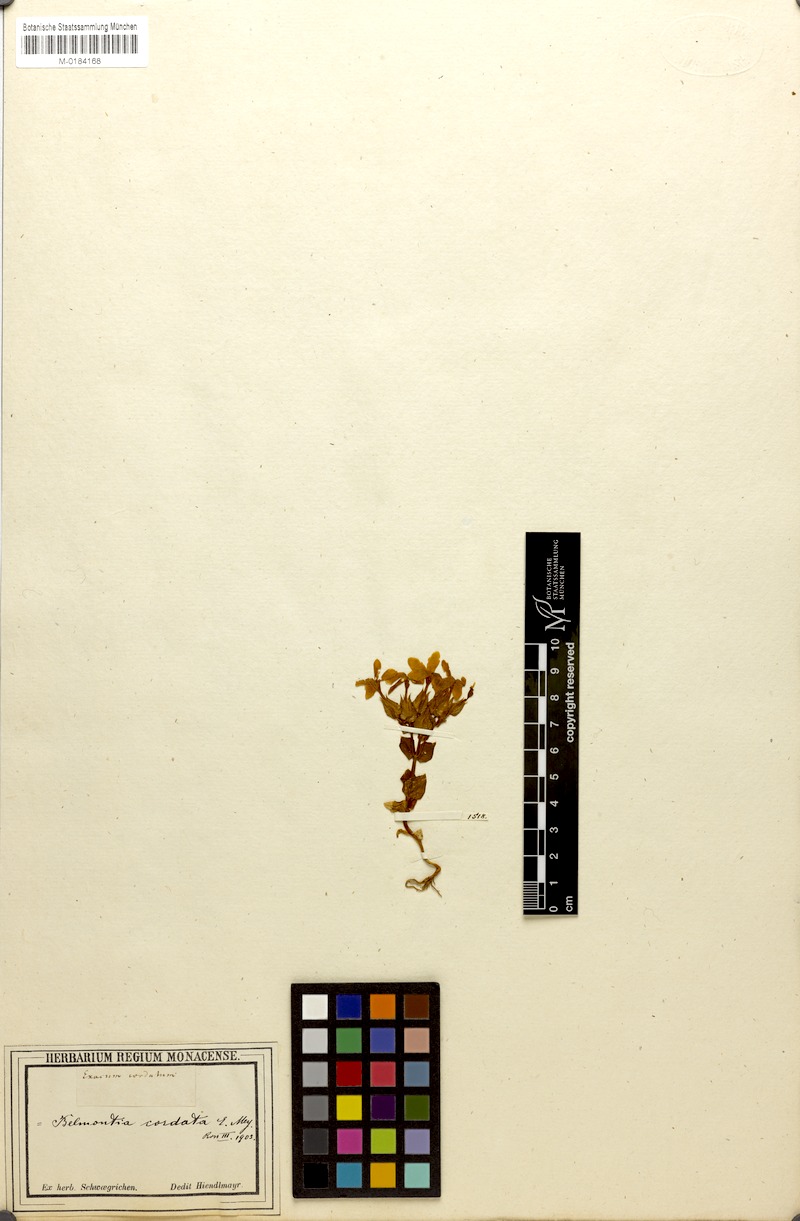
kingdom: Plantae
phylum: Tracheophyta
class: Magnoliopsida
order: Gentianales
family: Gentianaceae
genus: Sebaea
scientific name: Sebaea exacoides
